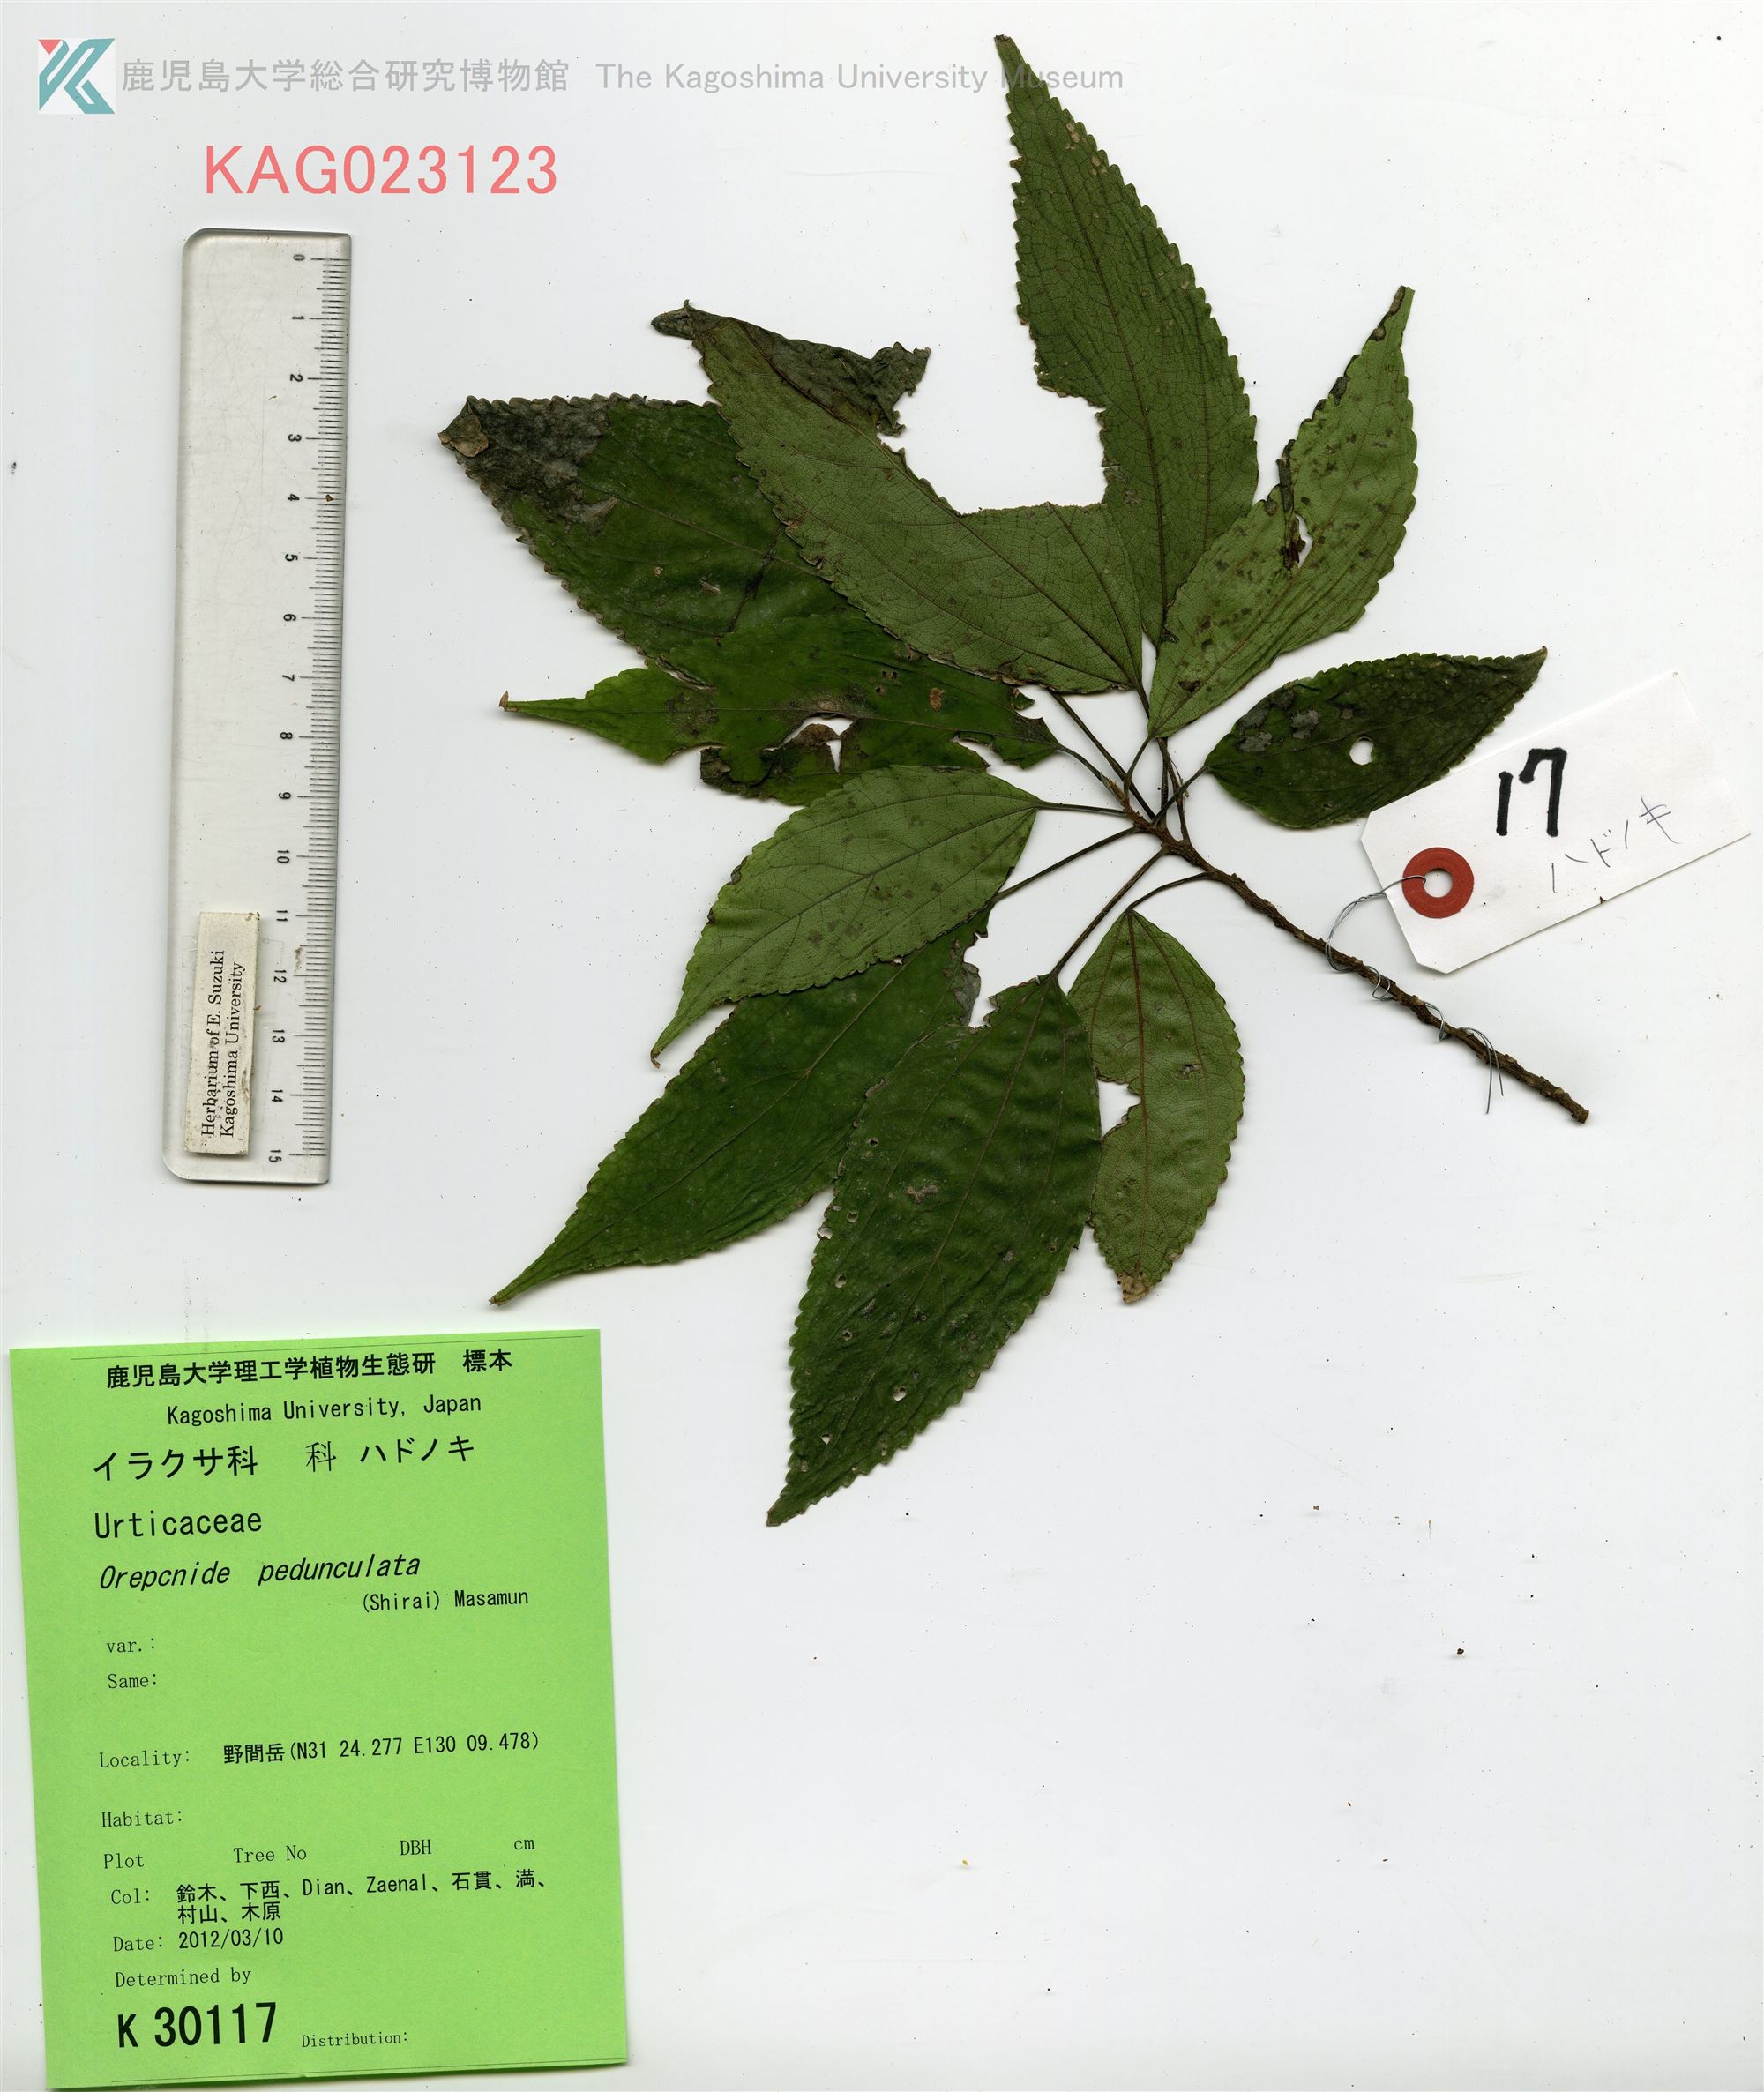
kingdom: Plantae
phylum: Tracheophyta
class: Magnoliopsida
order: Rosales
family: Urticaceae
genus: Oreocnide
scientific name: Oreocnide pedunculata
